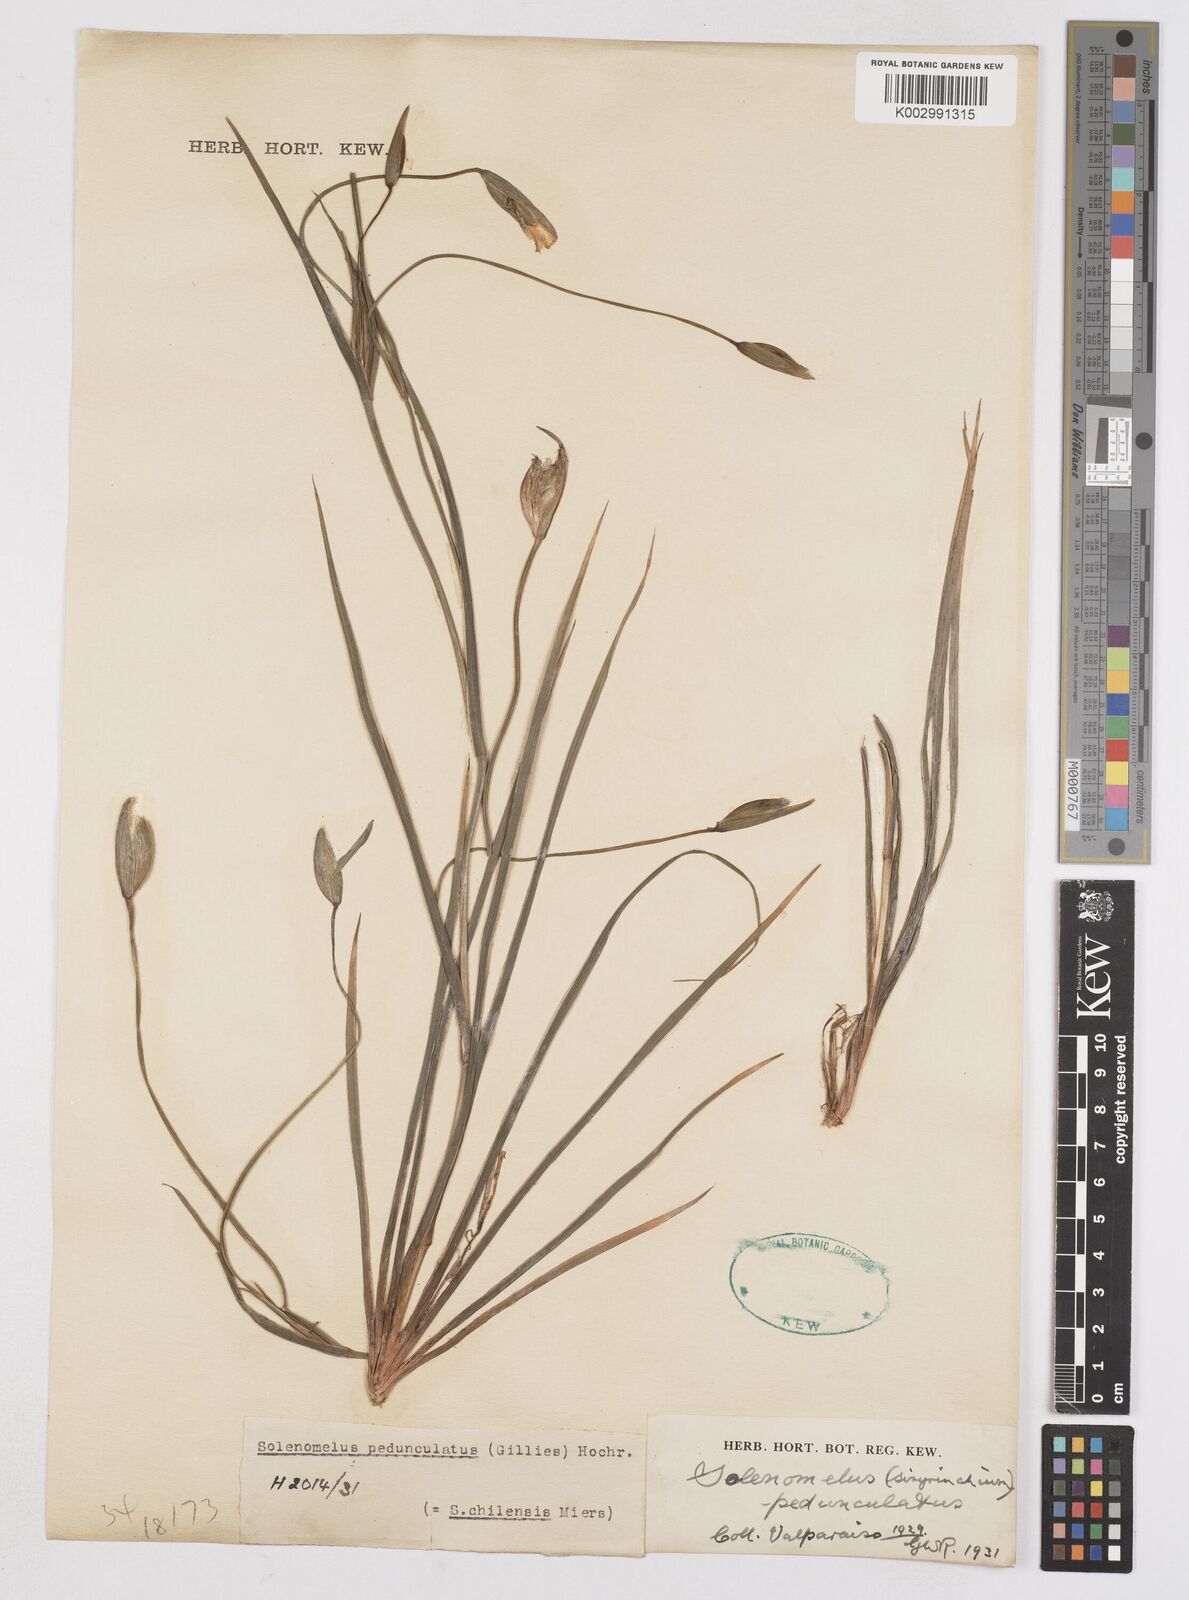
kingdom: Plantae
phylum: Tracheophyta
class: Liliopsida
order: Asparagales
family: Iridaceae
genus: Solenomelus
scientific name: Solenomelus pedunculatus
